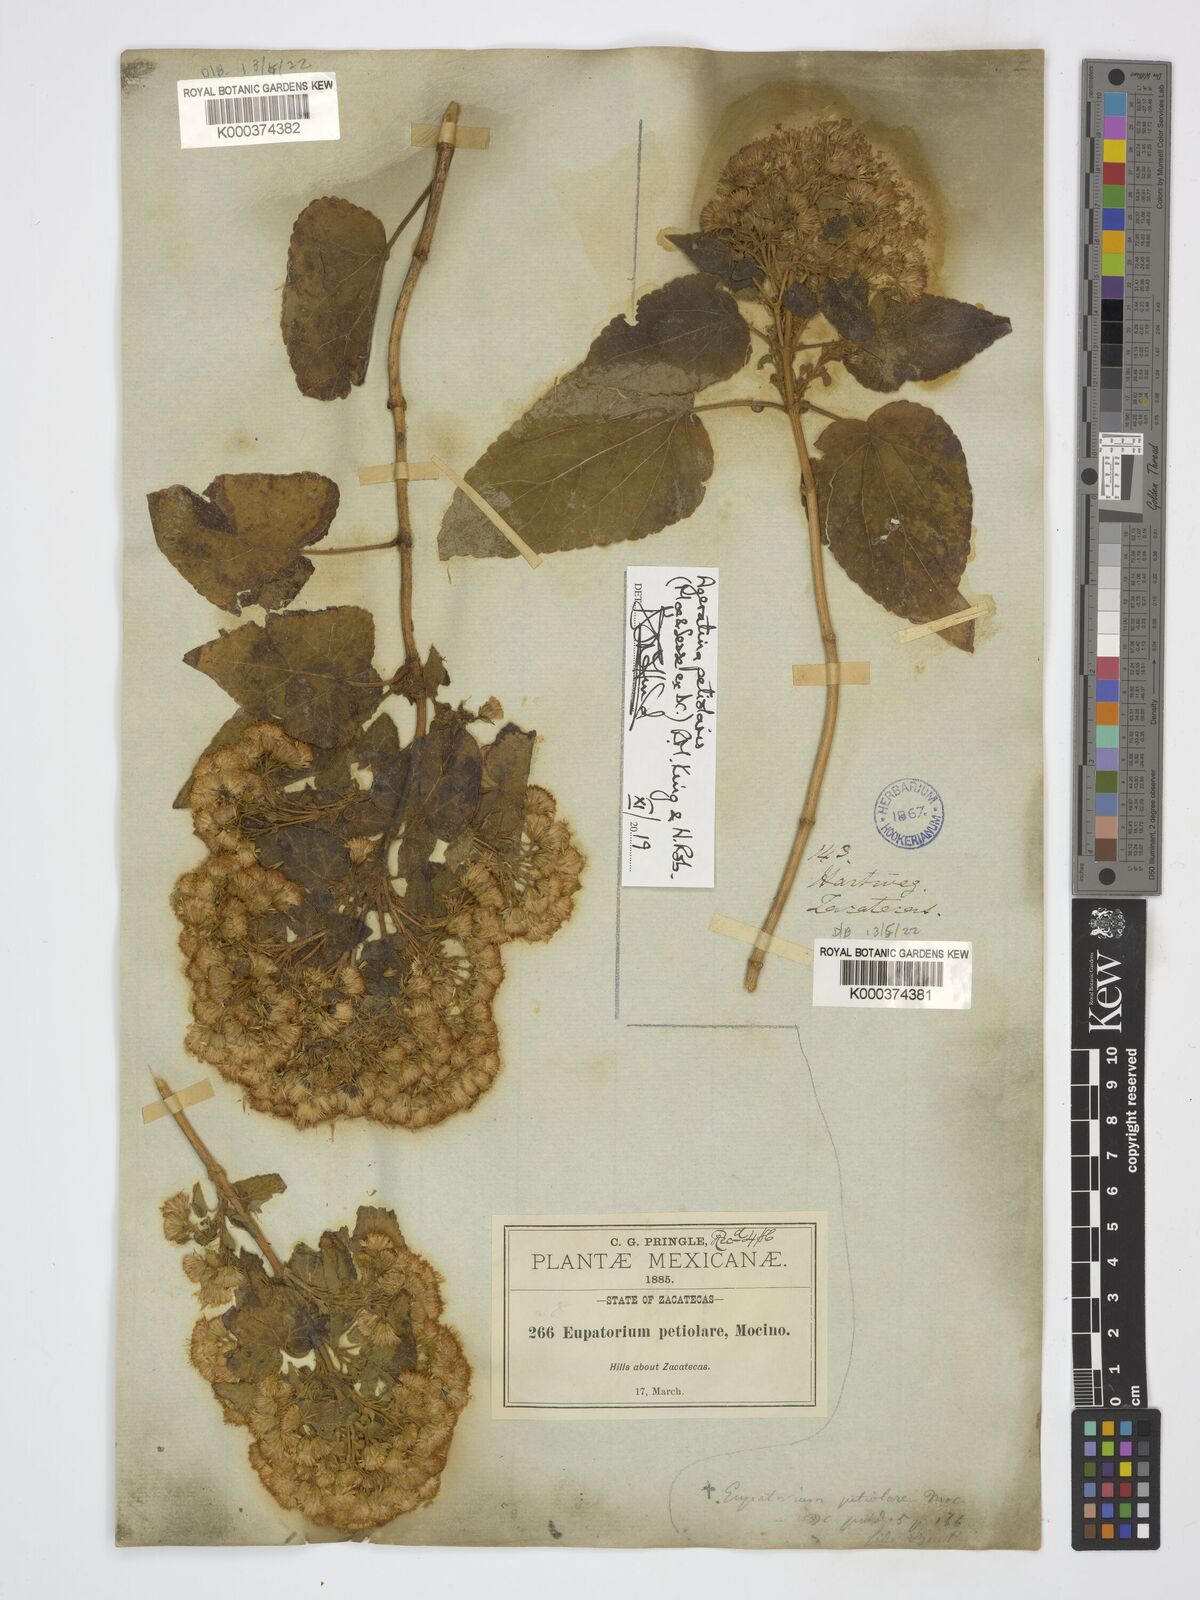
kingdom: Plantae
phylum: Tracheophyta
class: Magnoliopsida
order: Asterales
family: Asteraceae
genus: Ageratina
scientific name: Ageratina petiolaris
